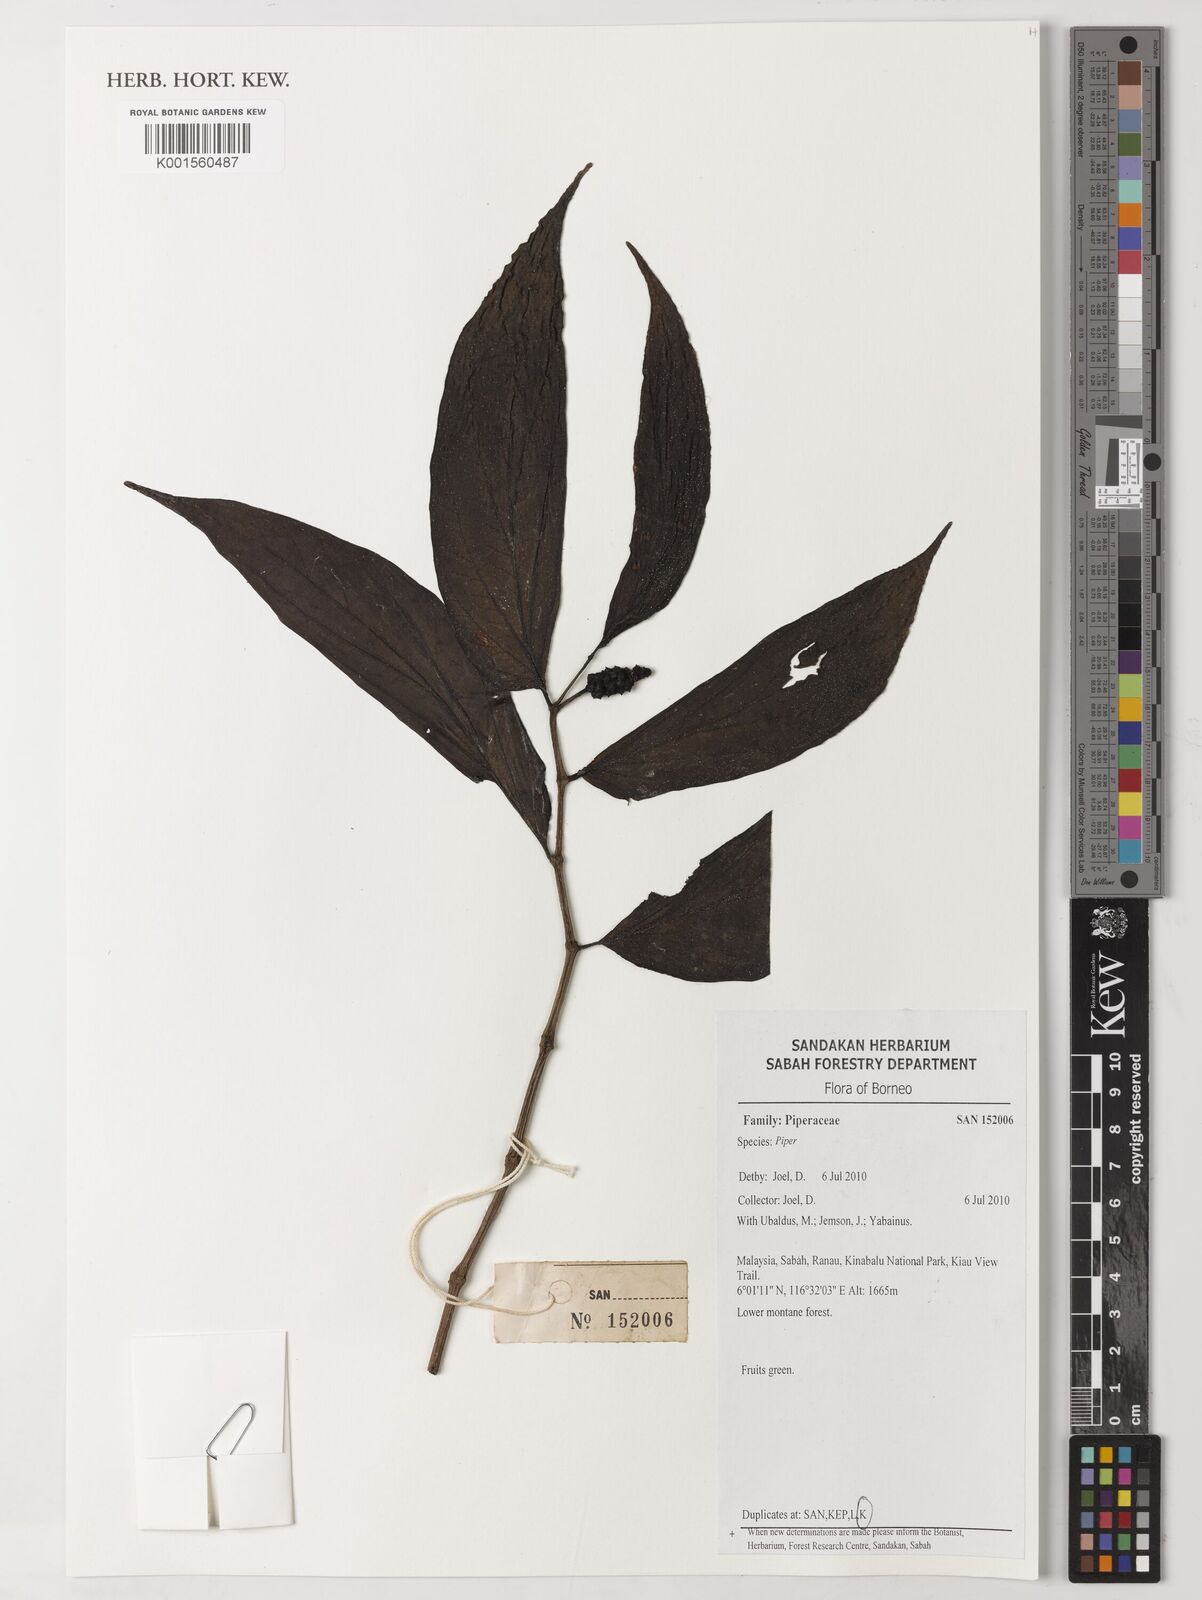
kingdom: Plantae
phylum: Tracheophyta
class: Magnoliopsida
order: Piperales
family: Piperaceae
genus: Piper
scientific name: Piper
